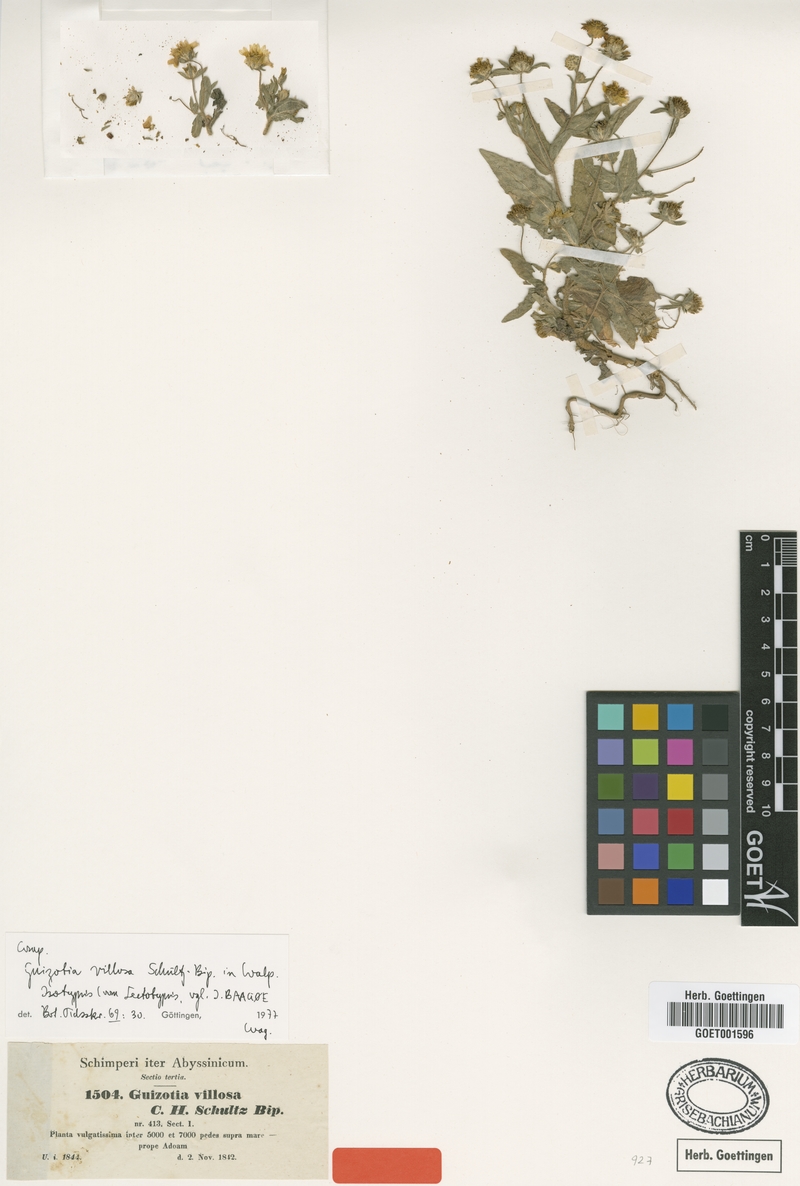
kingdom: Plantae
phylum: Tracheophyta
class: Magnoliopsida
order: Asterales
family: Asteraceae
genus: Guizotia
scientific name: Guizotia villosa
